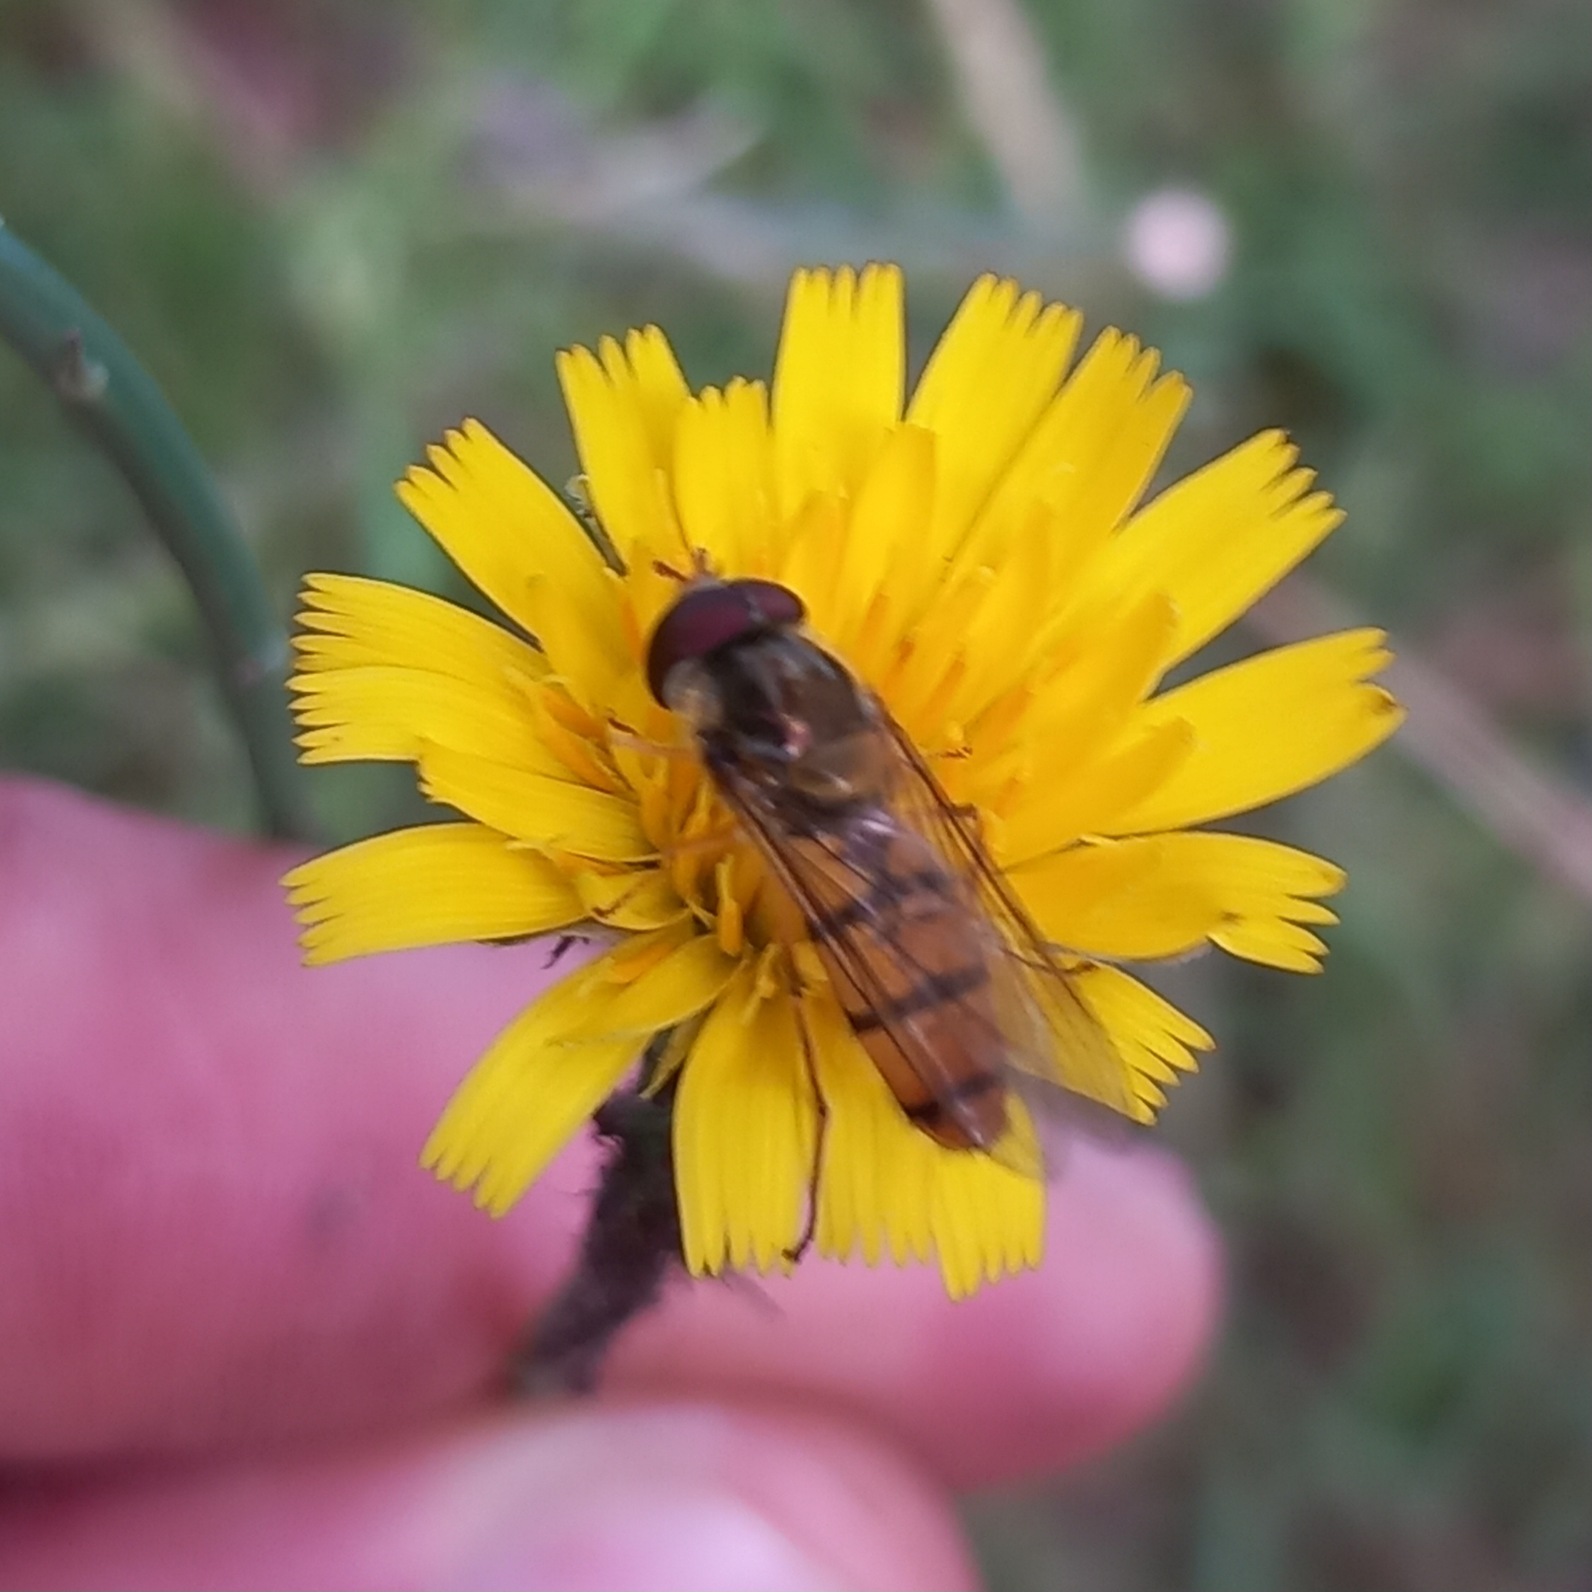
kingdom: Animalia
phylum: Arthropoda
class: Insecta
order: Diptera
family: Syrphidae
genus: Episyrphus
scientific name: Episyrphus balteatus
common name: Dobbeltbåndet svirreflue
